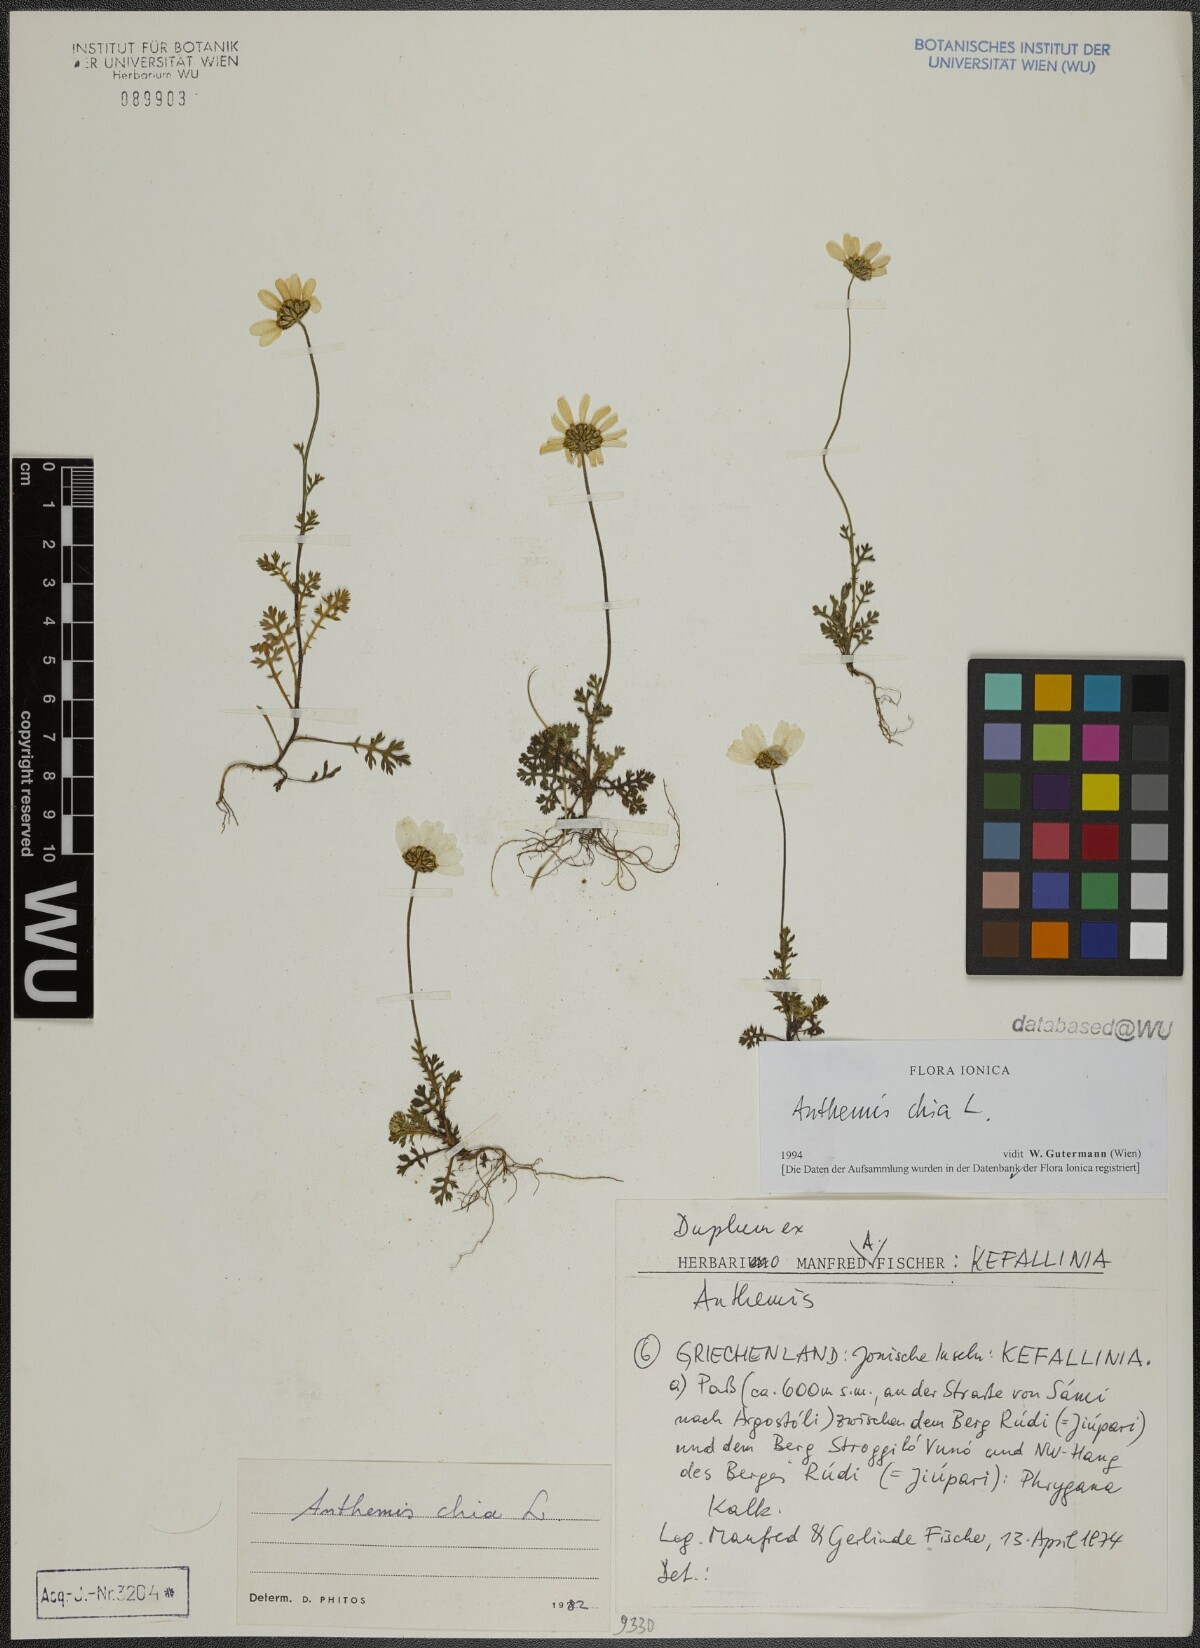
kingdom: Plantae
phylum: Tracheophyta
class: Magnoliopsida
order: Asterales
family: Asteraceae
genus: Anthemis
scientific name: Anthemis chia
